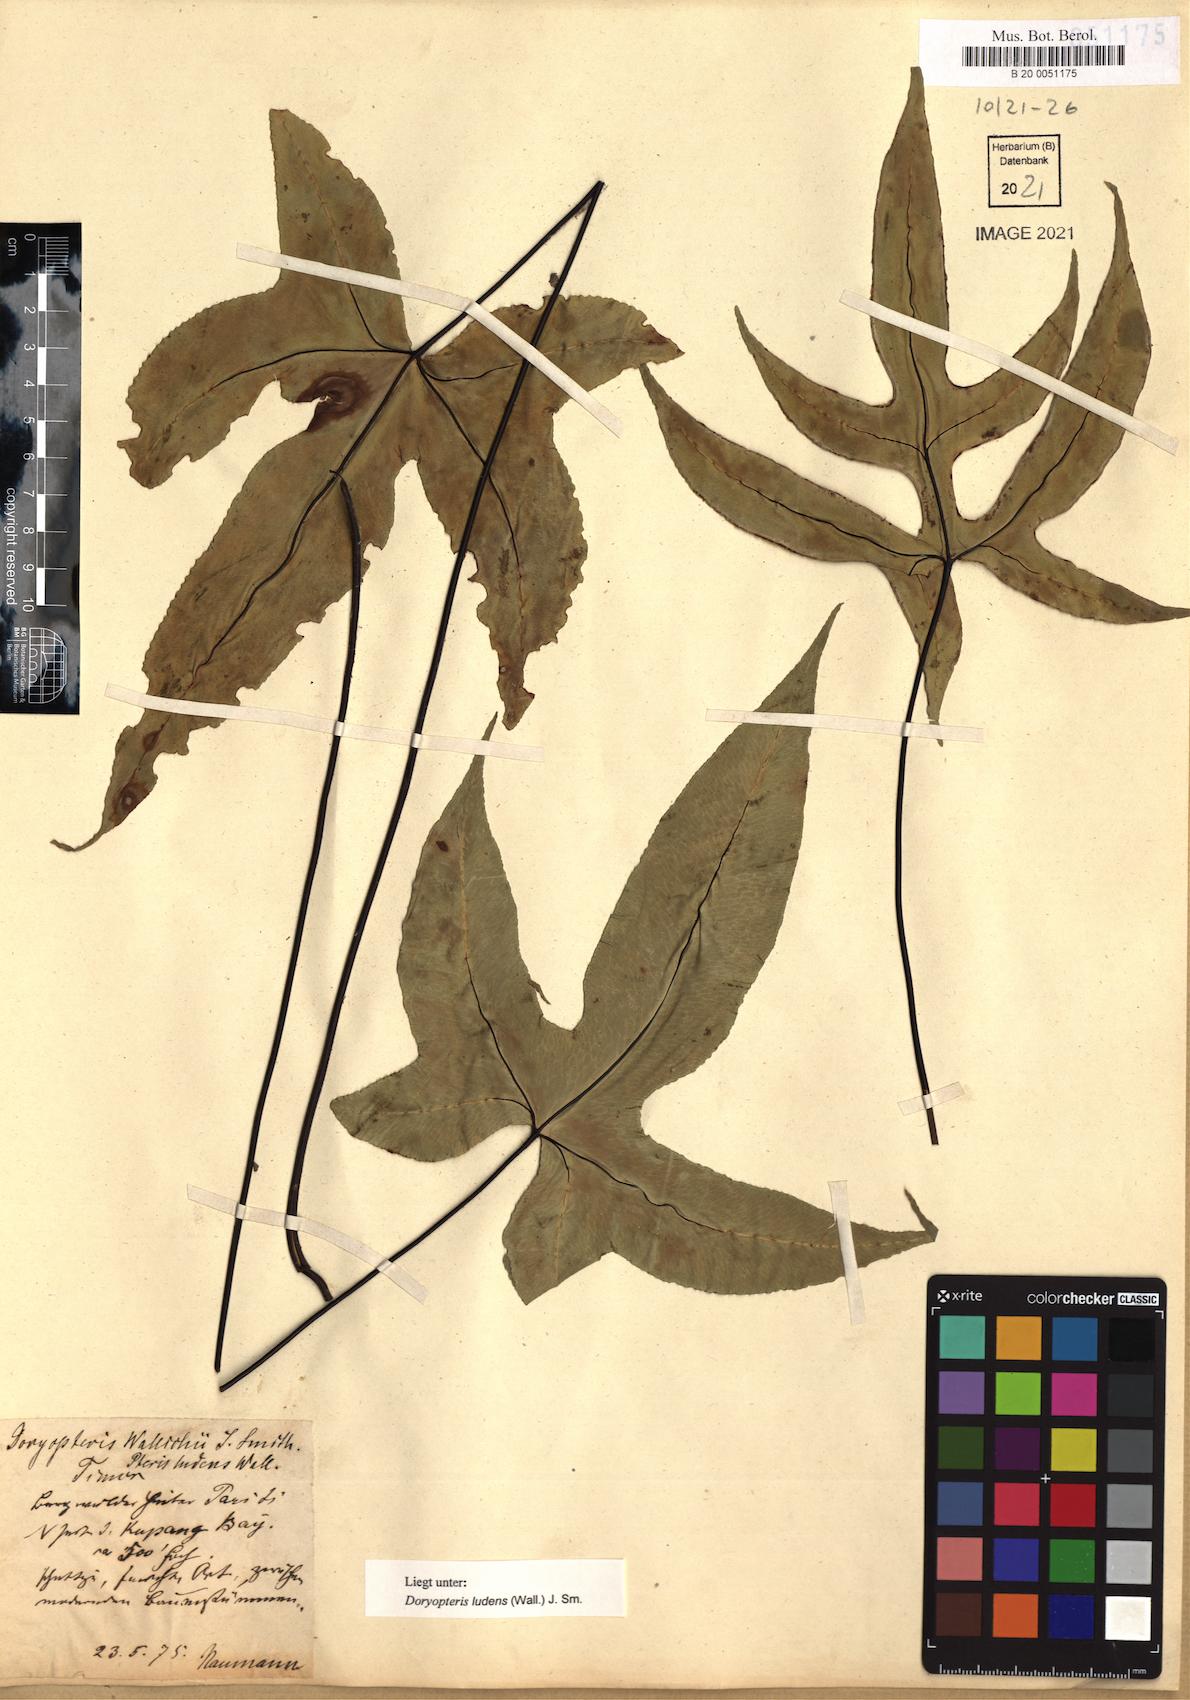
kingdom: Plantae
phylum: Tracheophyta
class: Polypodiopsida
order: Polypodiales
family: Pteridaceae
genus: Calciphilopteris
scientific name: Calciphilopteris ludens
